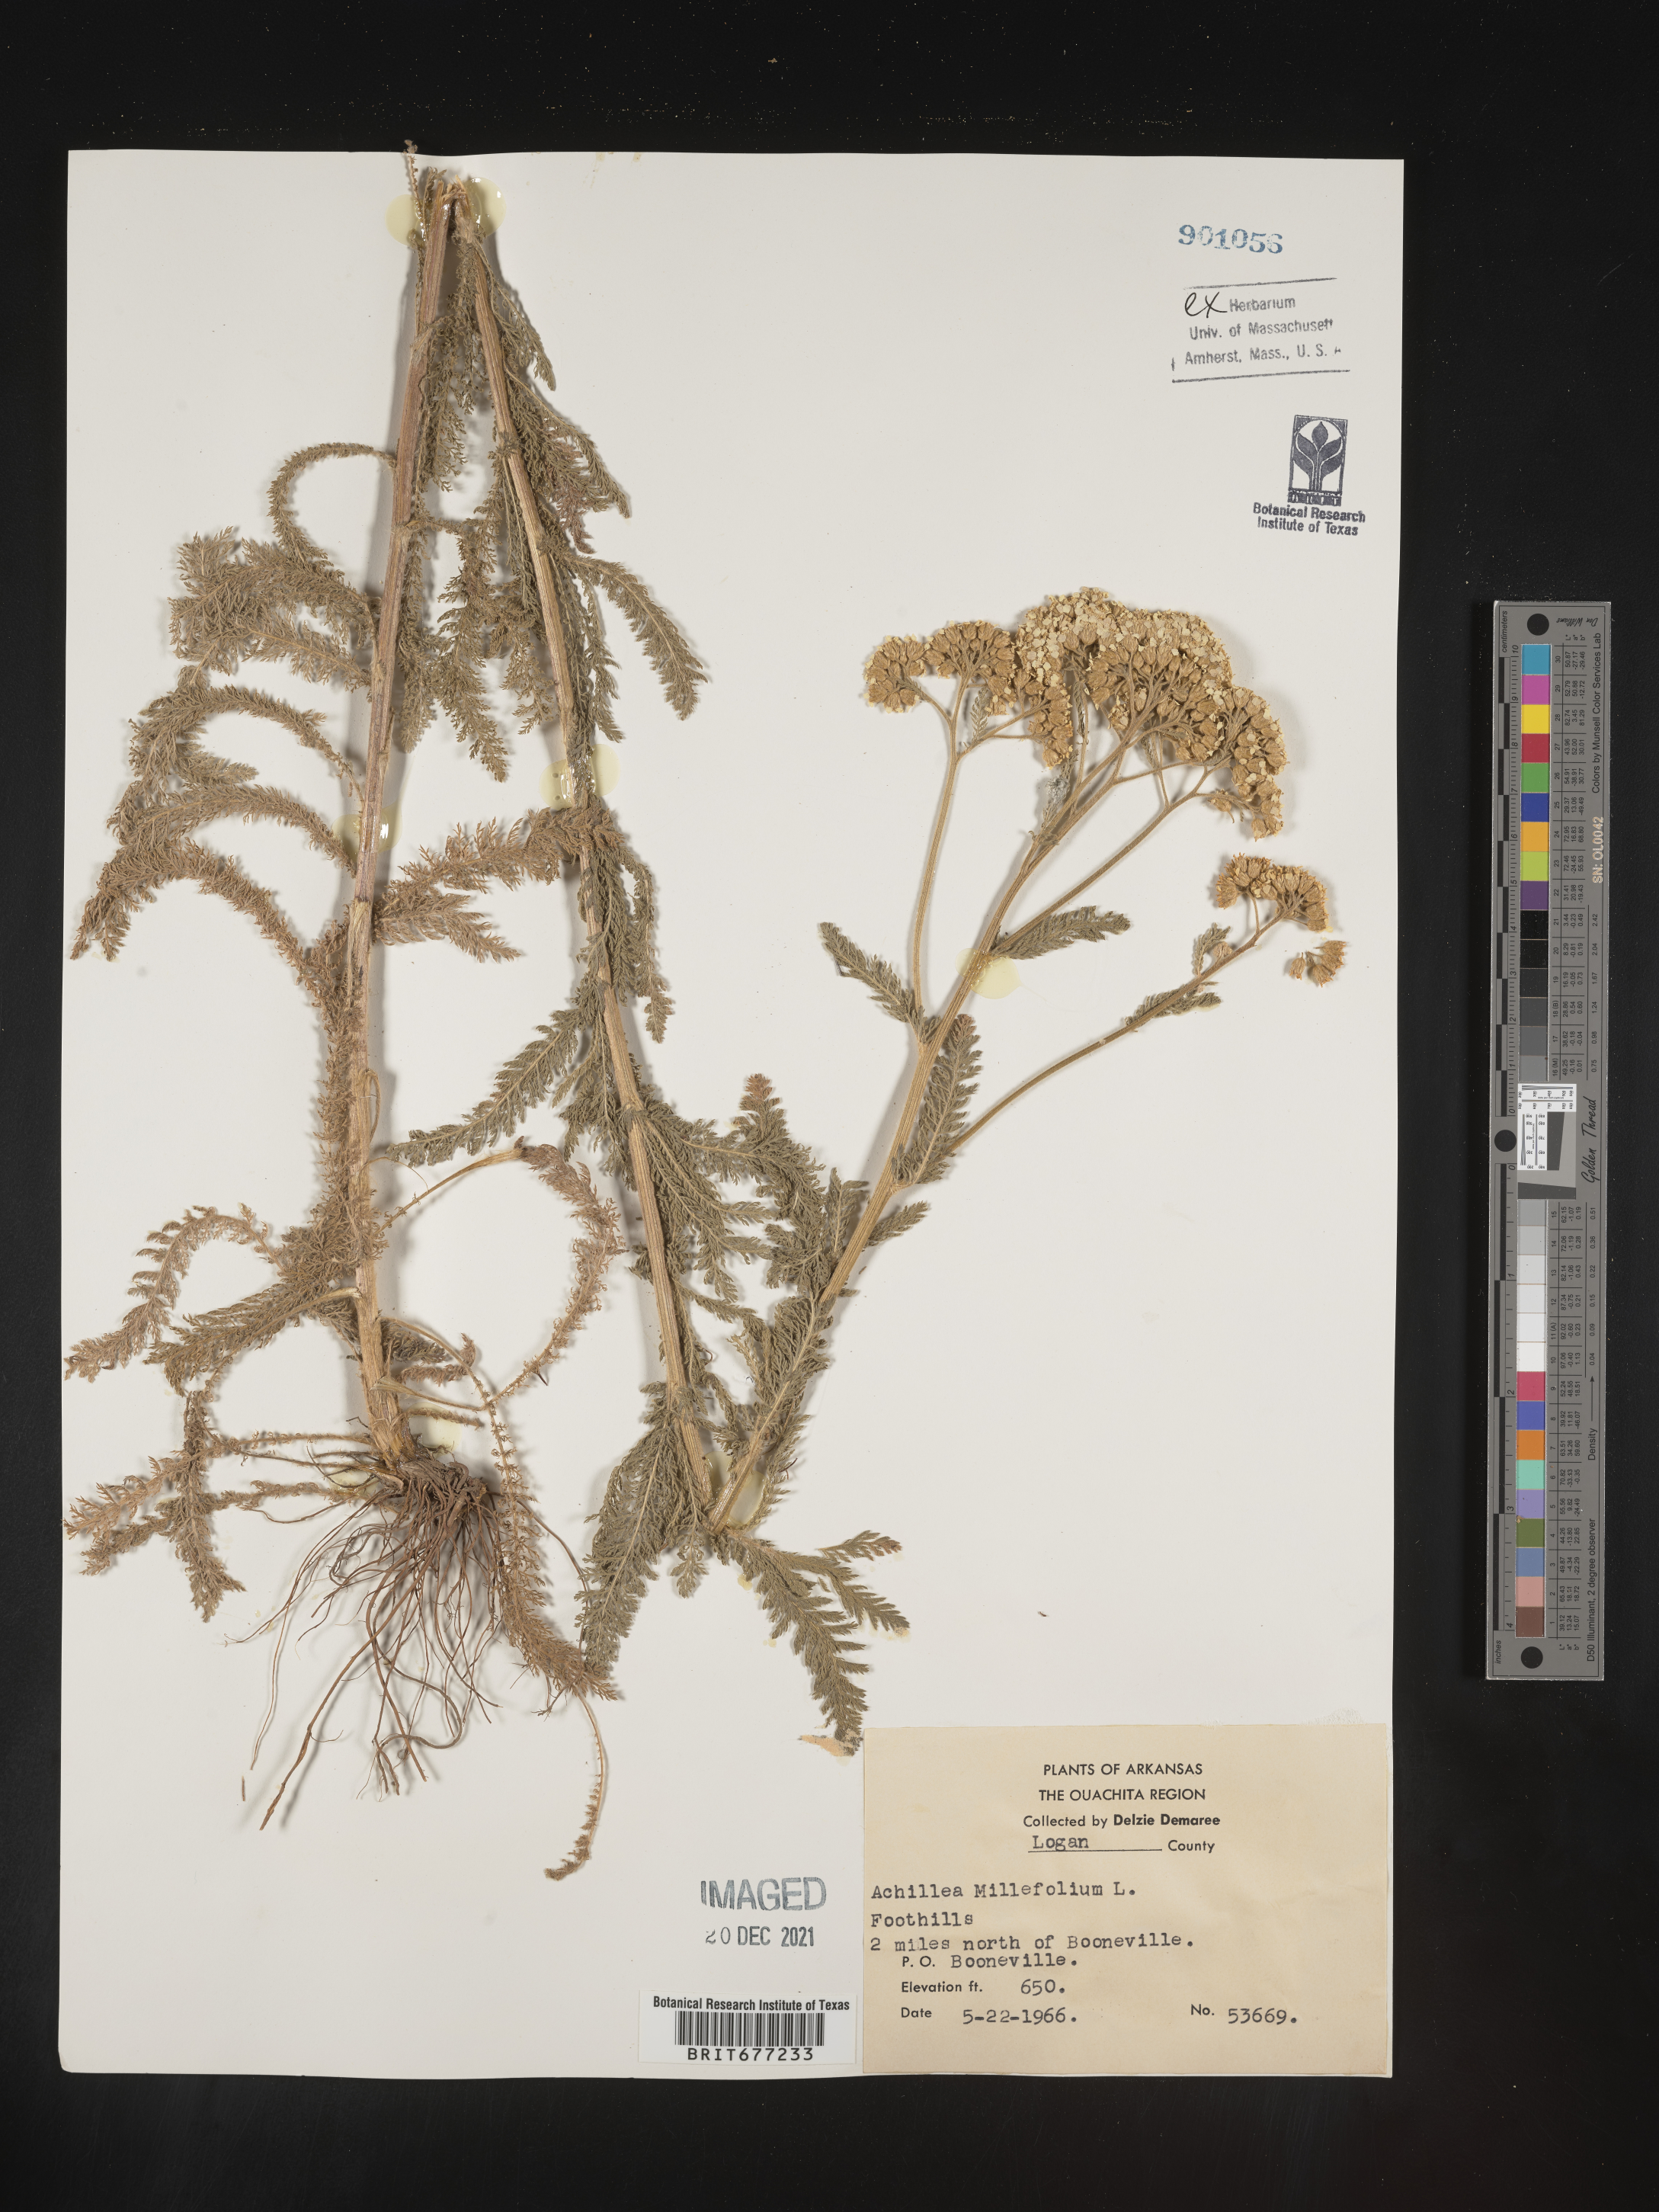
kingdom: Plantae
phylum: Tracheophyta
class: Magnoliopsida
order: Asterales
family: Asteraceae
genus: Achillea
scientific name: Achillea millefolium
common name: Yarrow
